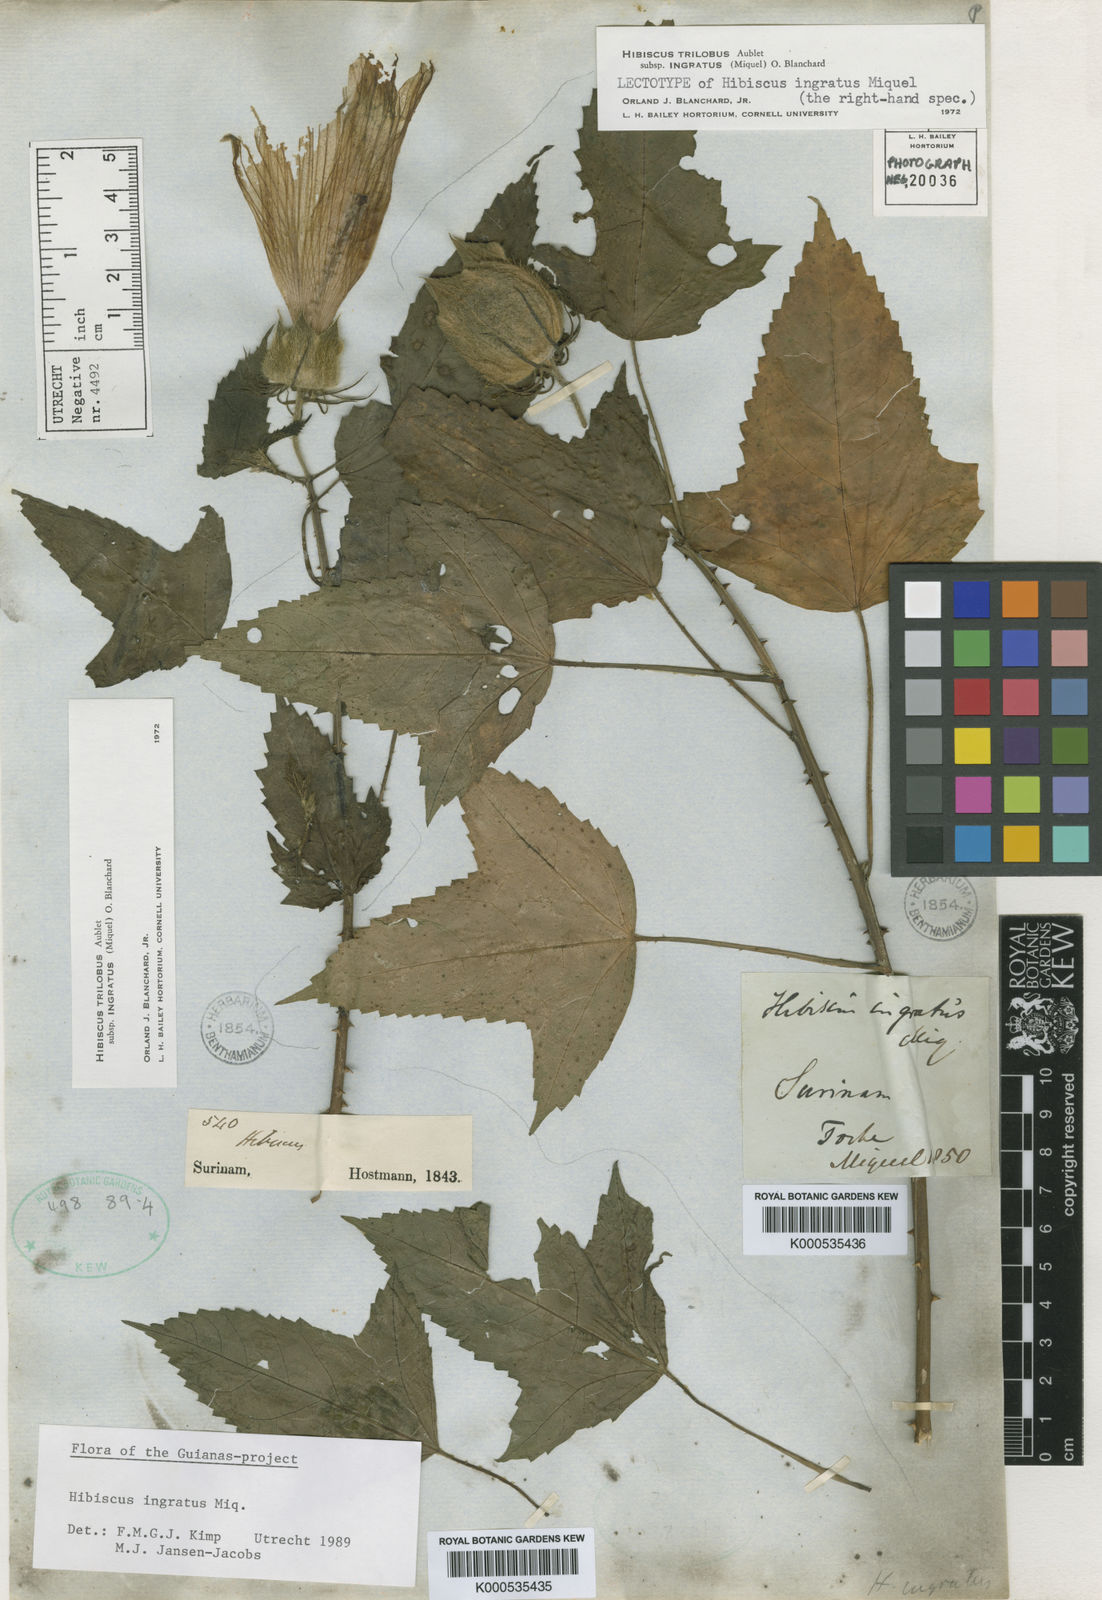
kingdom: Plantae
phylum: Tracheophyta
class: Magnoliopsida
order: Malvales
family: Malvaceae
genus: Hibiscus
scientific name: Hibiscus trilobus
